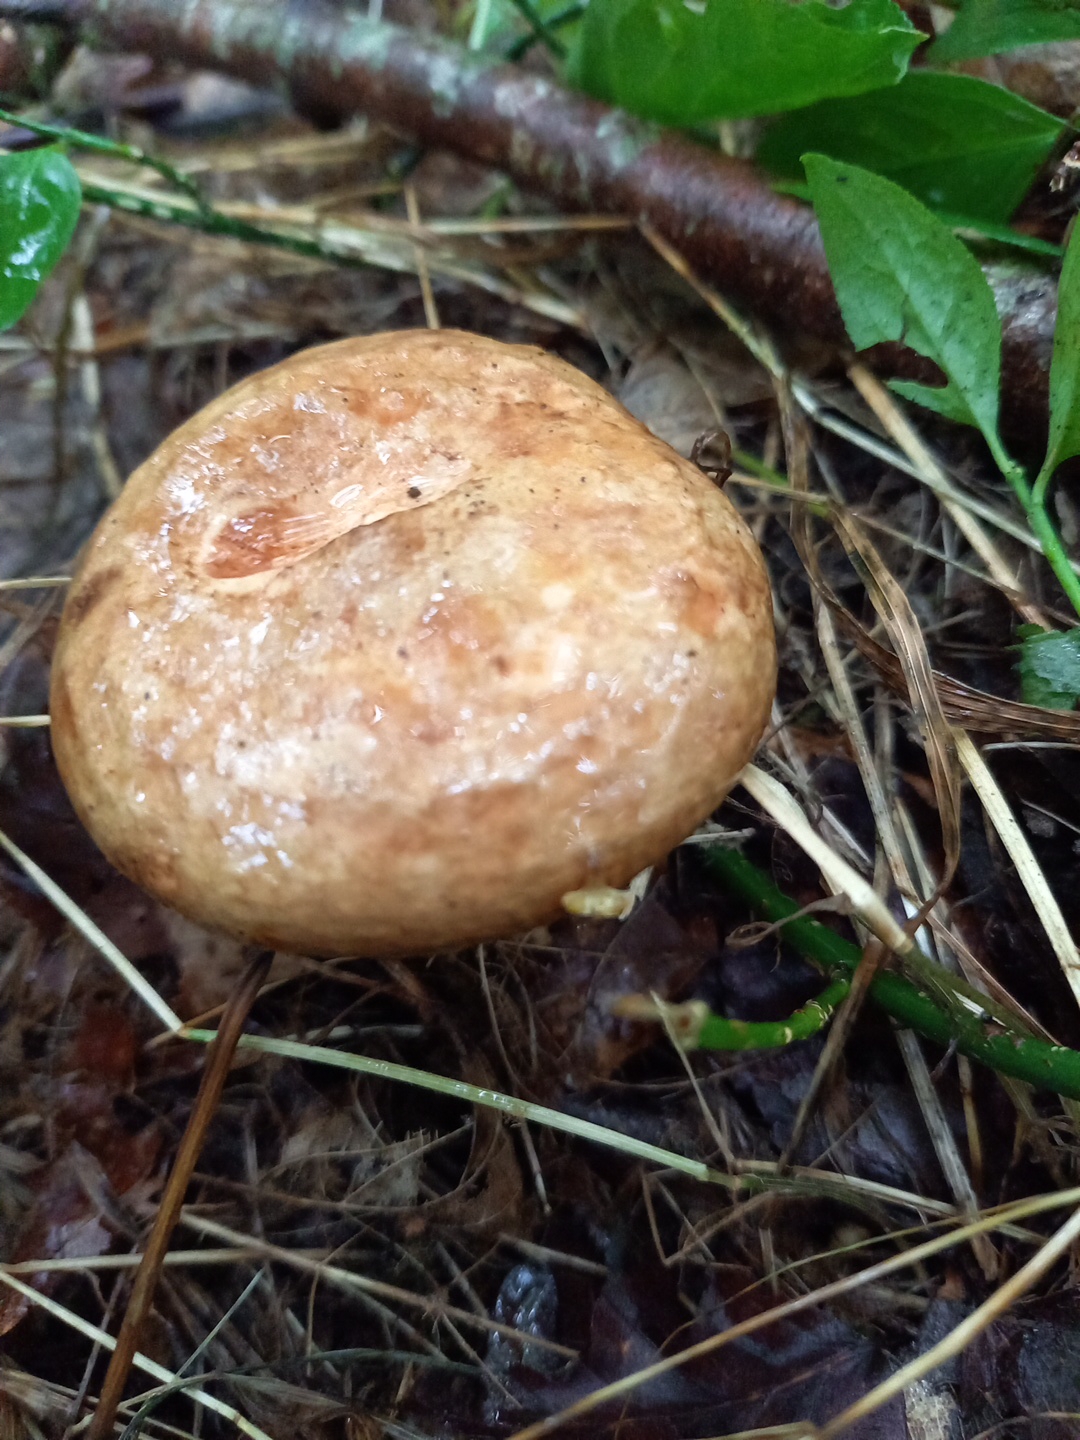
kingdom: Fungi
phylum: Basidiomycota
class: Agaricomycetes
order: Boletales
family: Paxillaceae
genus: Paxillus
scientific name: Paxillus involutus
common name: almindelig netbladhat
